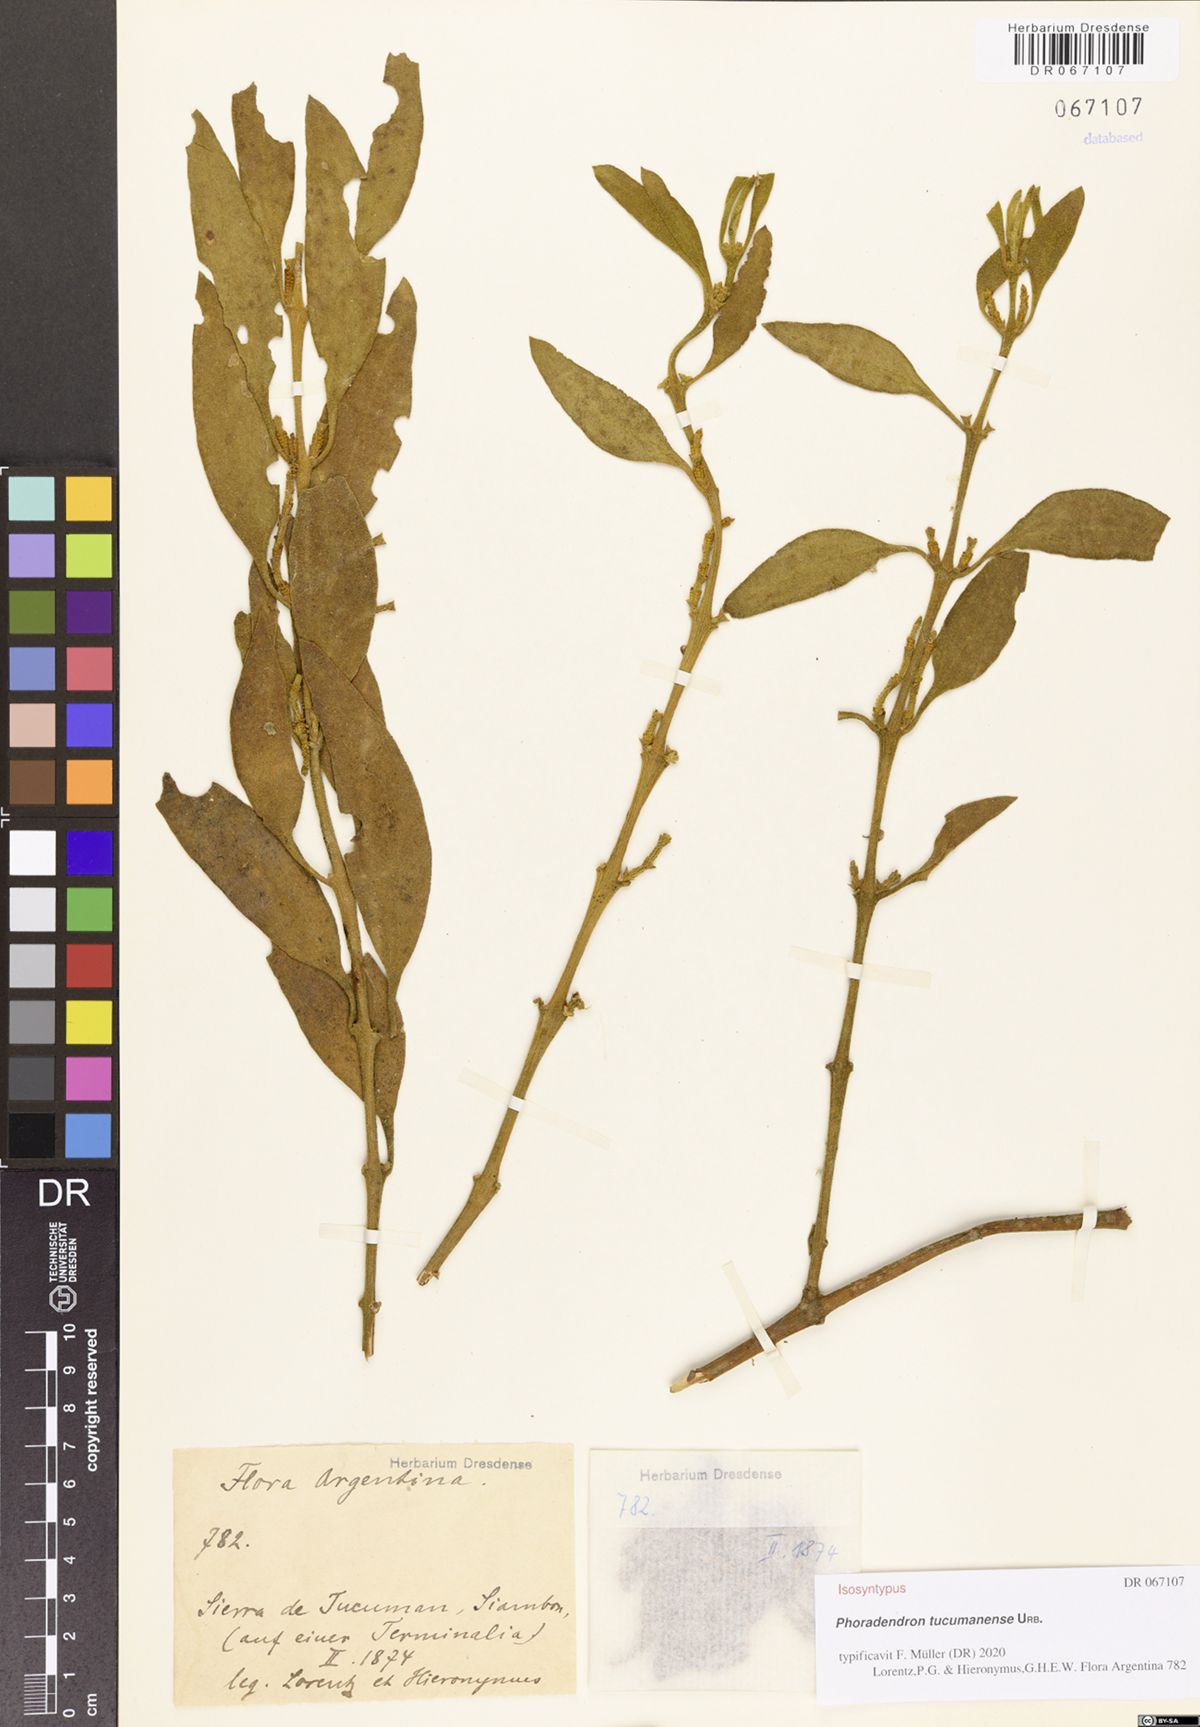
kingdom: Plantae
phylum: Tracheophyta
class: Magnoliopsida
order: Santalales
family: Viscaceae
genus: Phoradendron
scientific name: Phoradendron tucumanense
